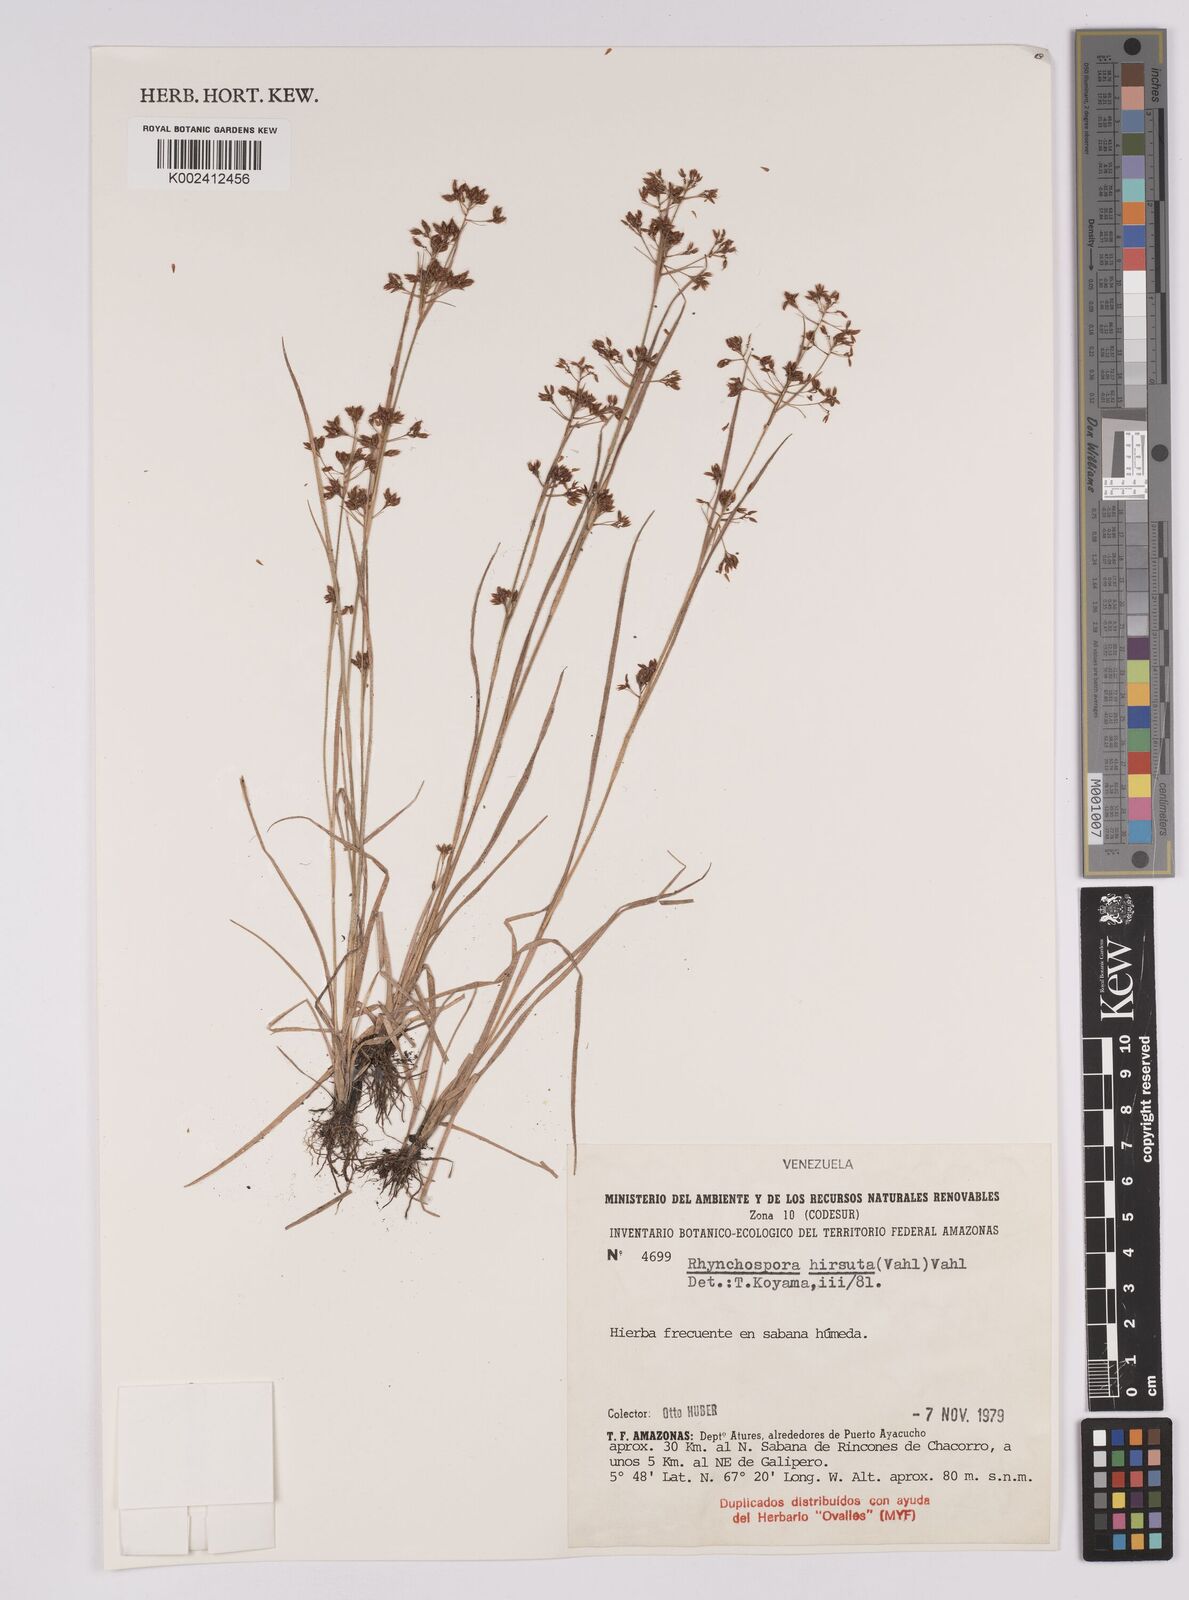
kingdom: Plantae
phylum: Tracheophyta
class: Liliopsida
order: Poales
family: Cyperaceae
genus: Rhynchospora
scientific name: Rhynchospora hirsuta
